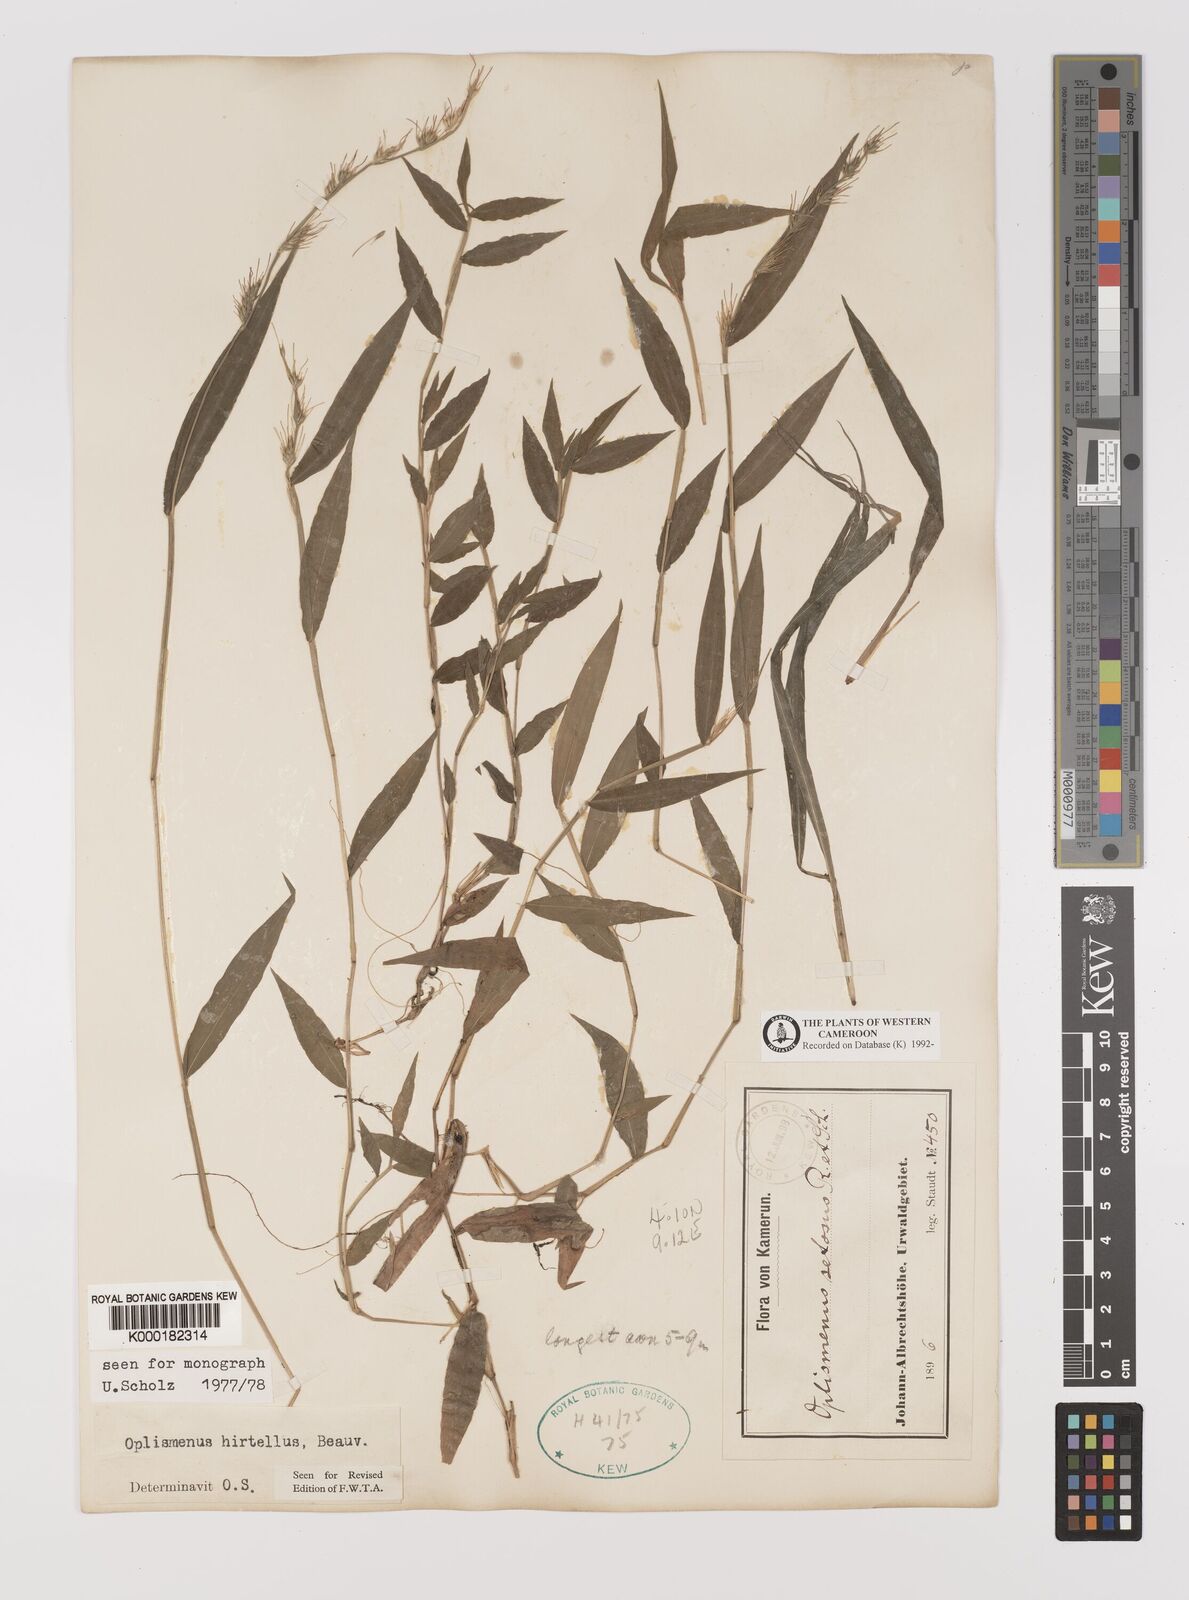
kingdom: Plantae
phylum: Tracheophyta
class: Liliopsida
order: Poales
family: Poaceae
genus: Oplismenus
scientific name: Oplismenus hirtellus
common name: Basketgrass
